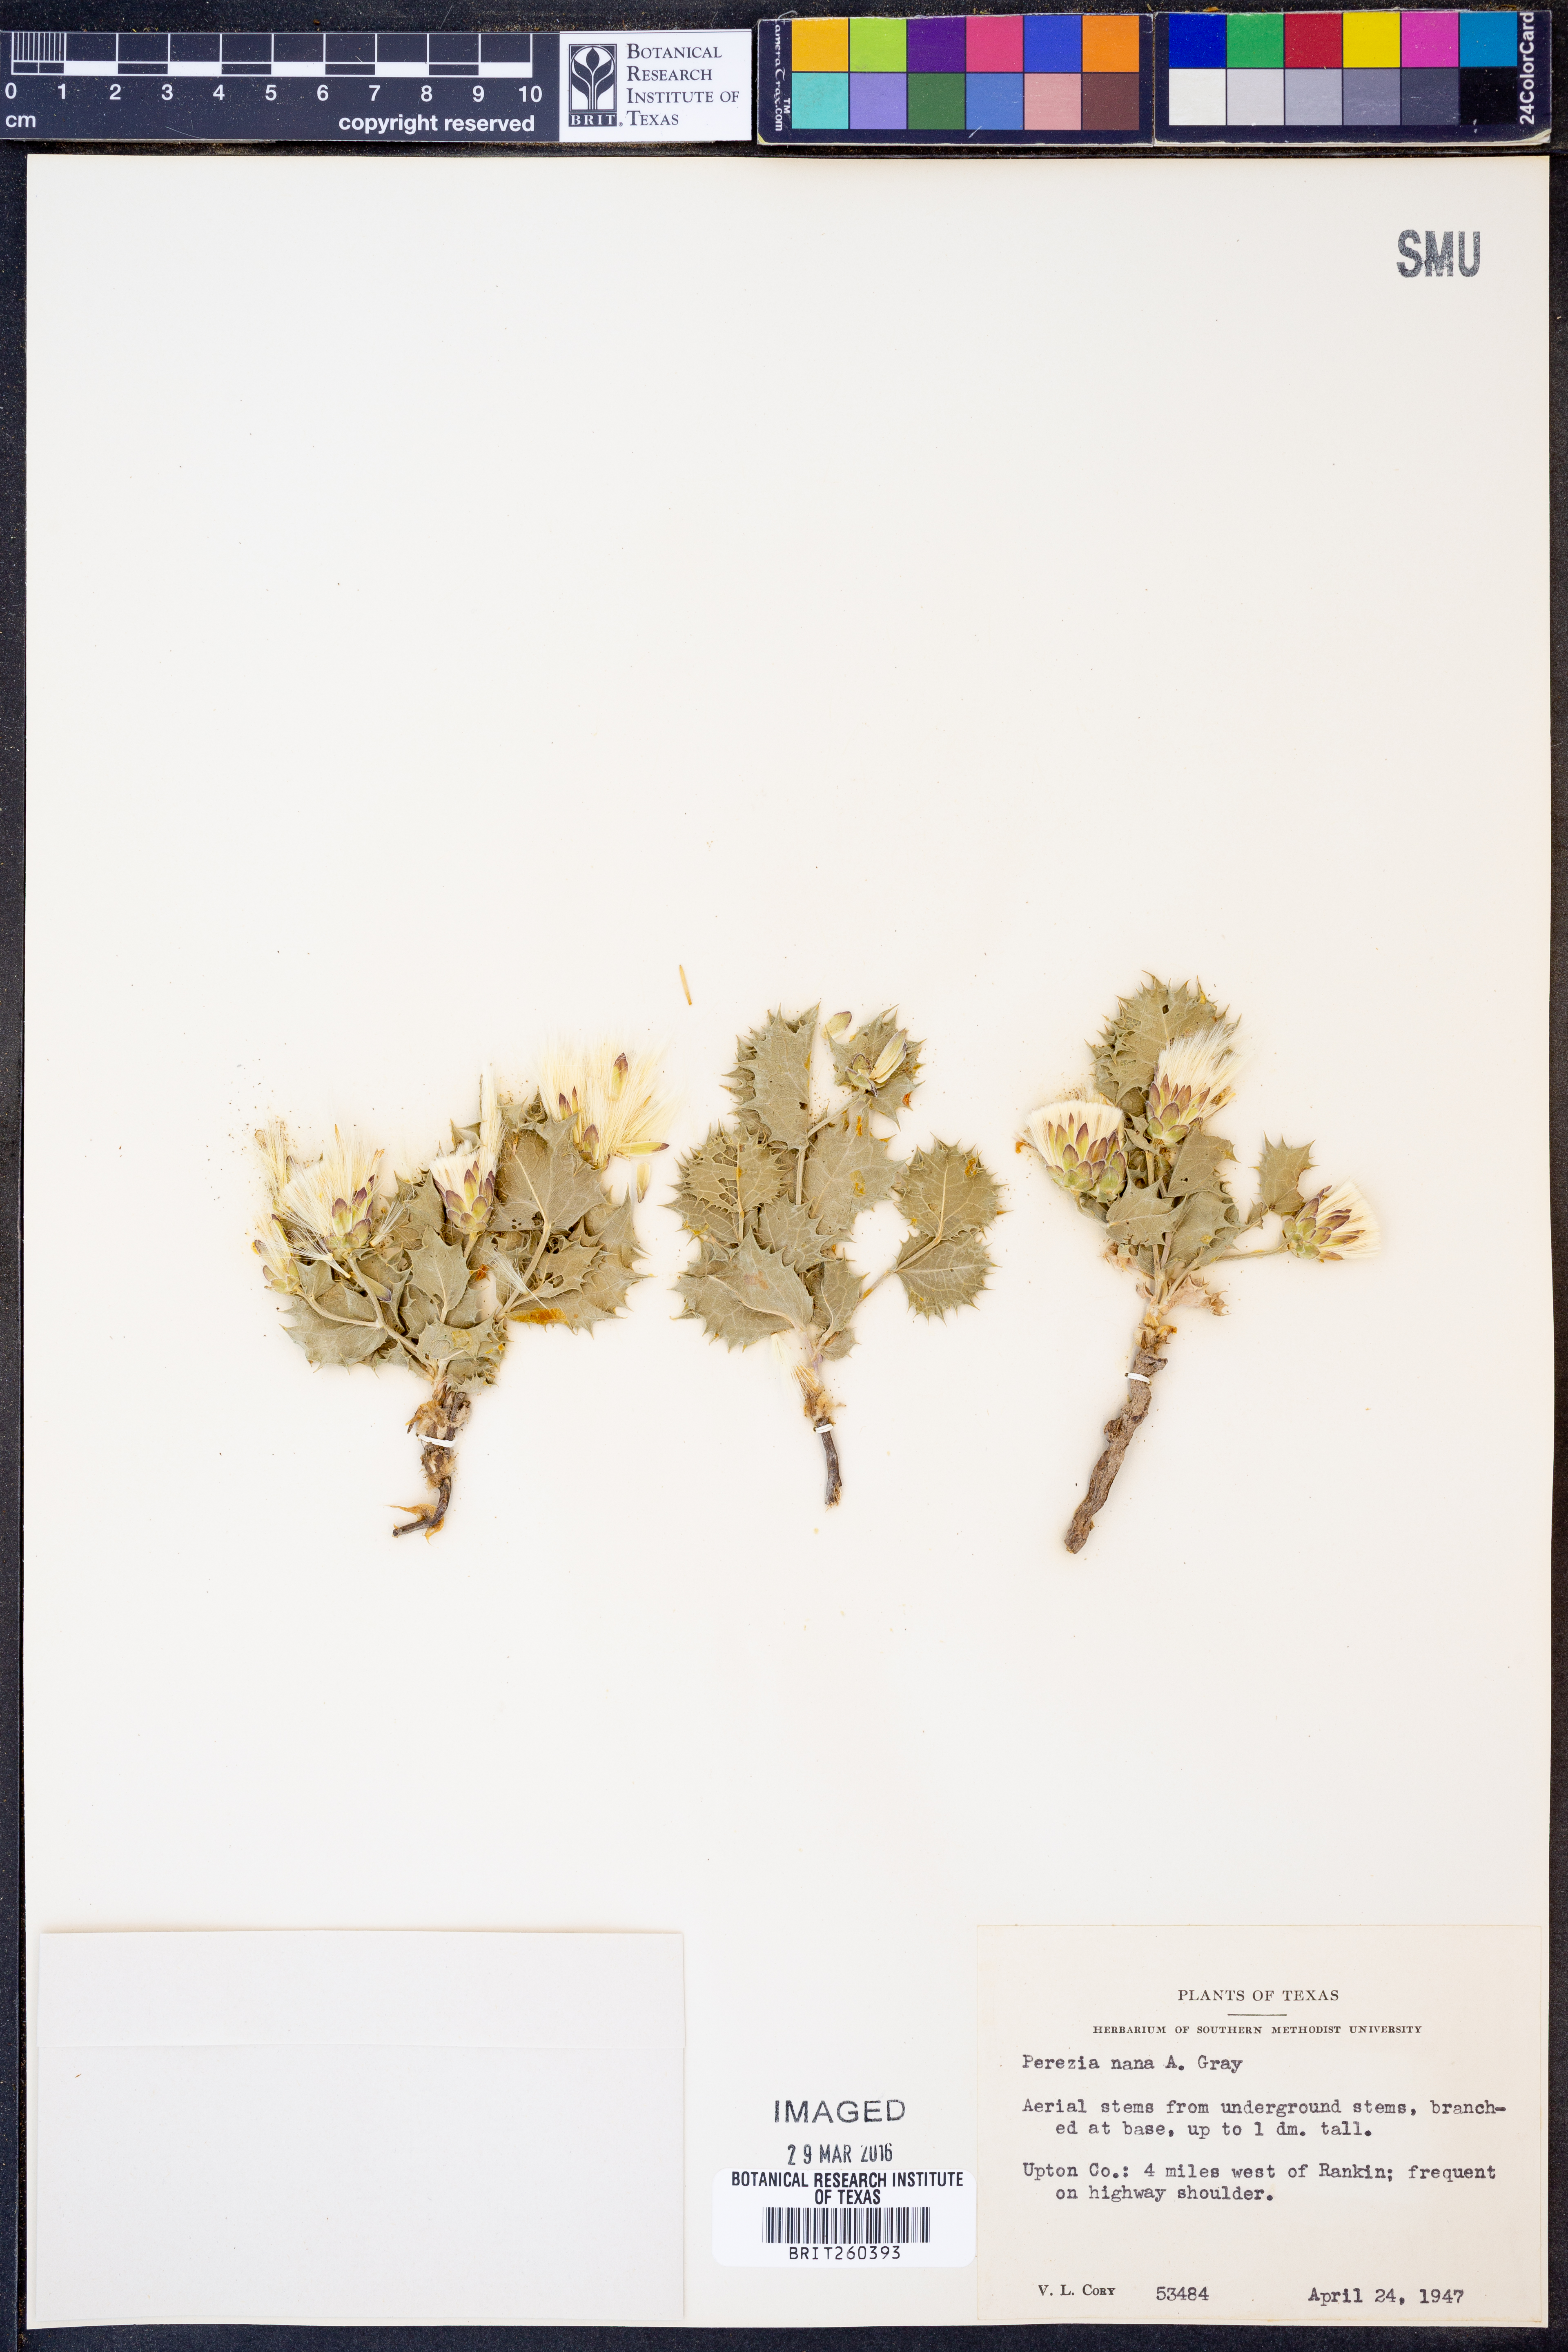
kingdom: Plantae
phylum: Tracheophyta
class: Magnoliopsida
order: Asterales
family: Asteraceae
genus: Acourtia
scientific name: Acourtia nana
